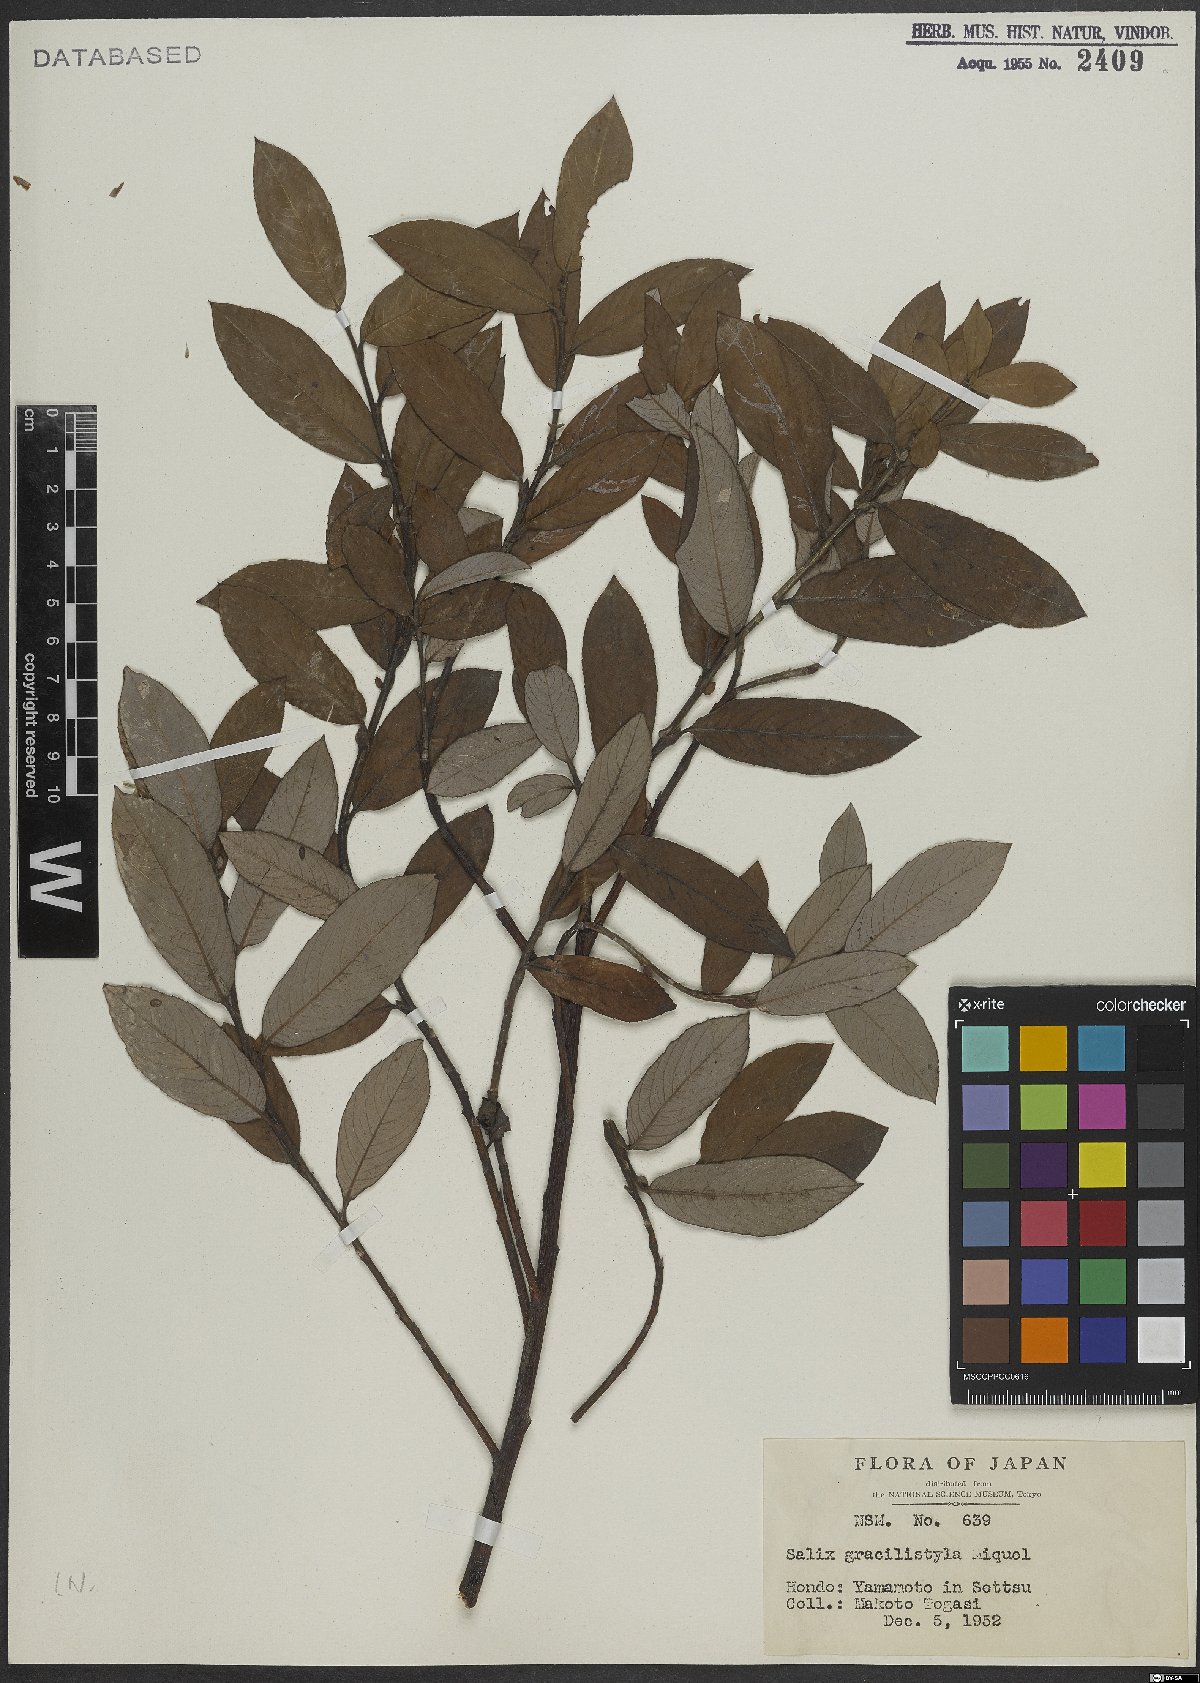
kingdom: Plantae
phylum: Tracheophyta
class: Magnoliopsida
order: Malpighiales
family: Salicaceae
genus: Salix
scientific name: Salix gracilistyla
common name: Rose-gold pussy willow
